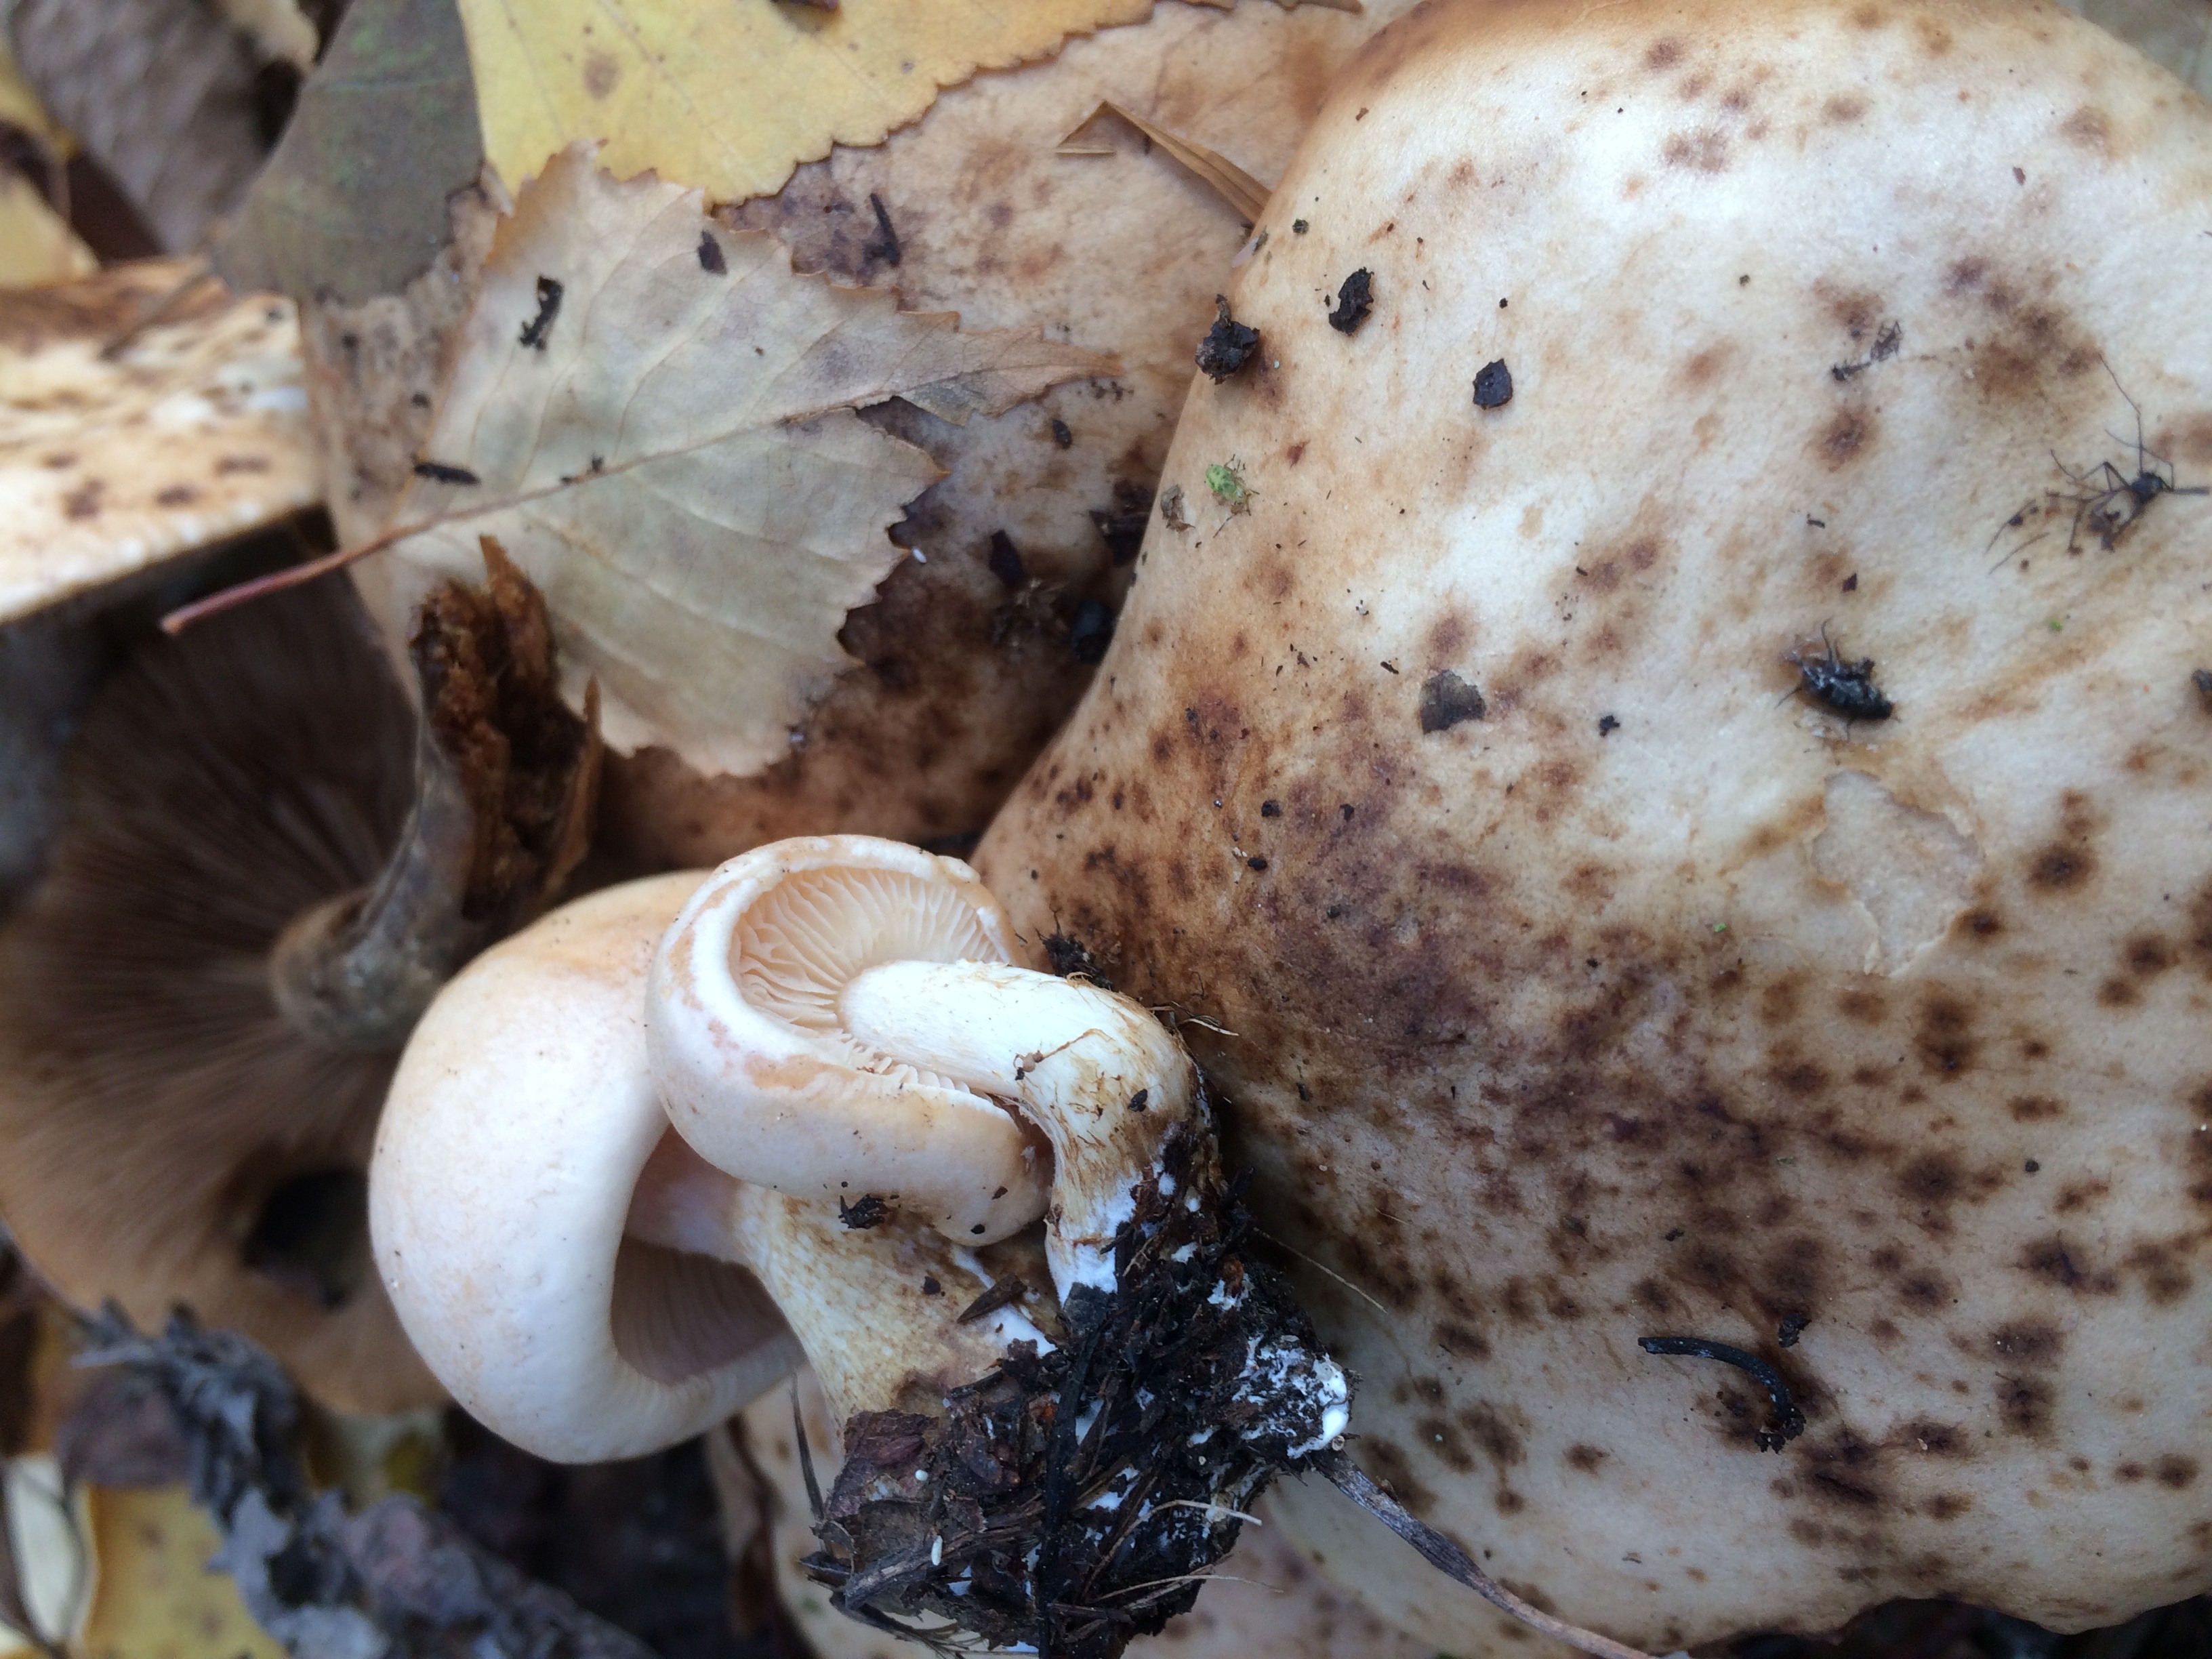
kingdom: Fungi
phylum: Basidiomycota
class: Agaricomycetes
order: Agaricales
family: Hymenogastraceae
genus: Hebeloma
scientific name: Hebeloma ischnostylum
